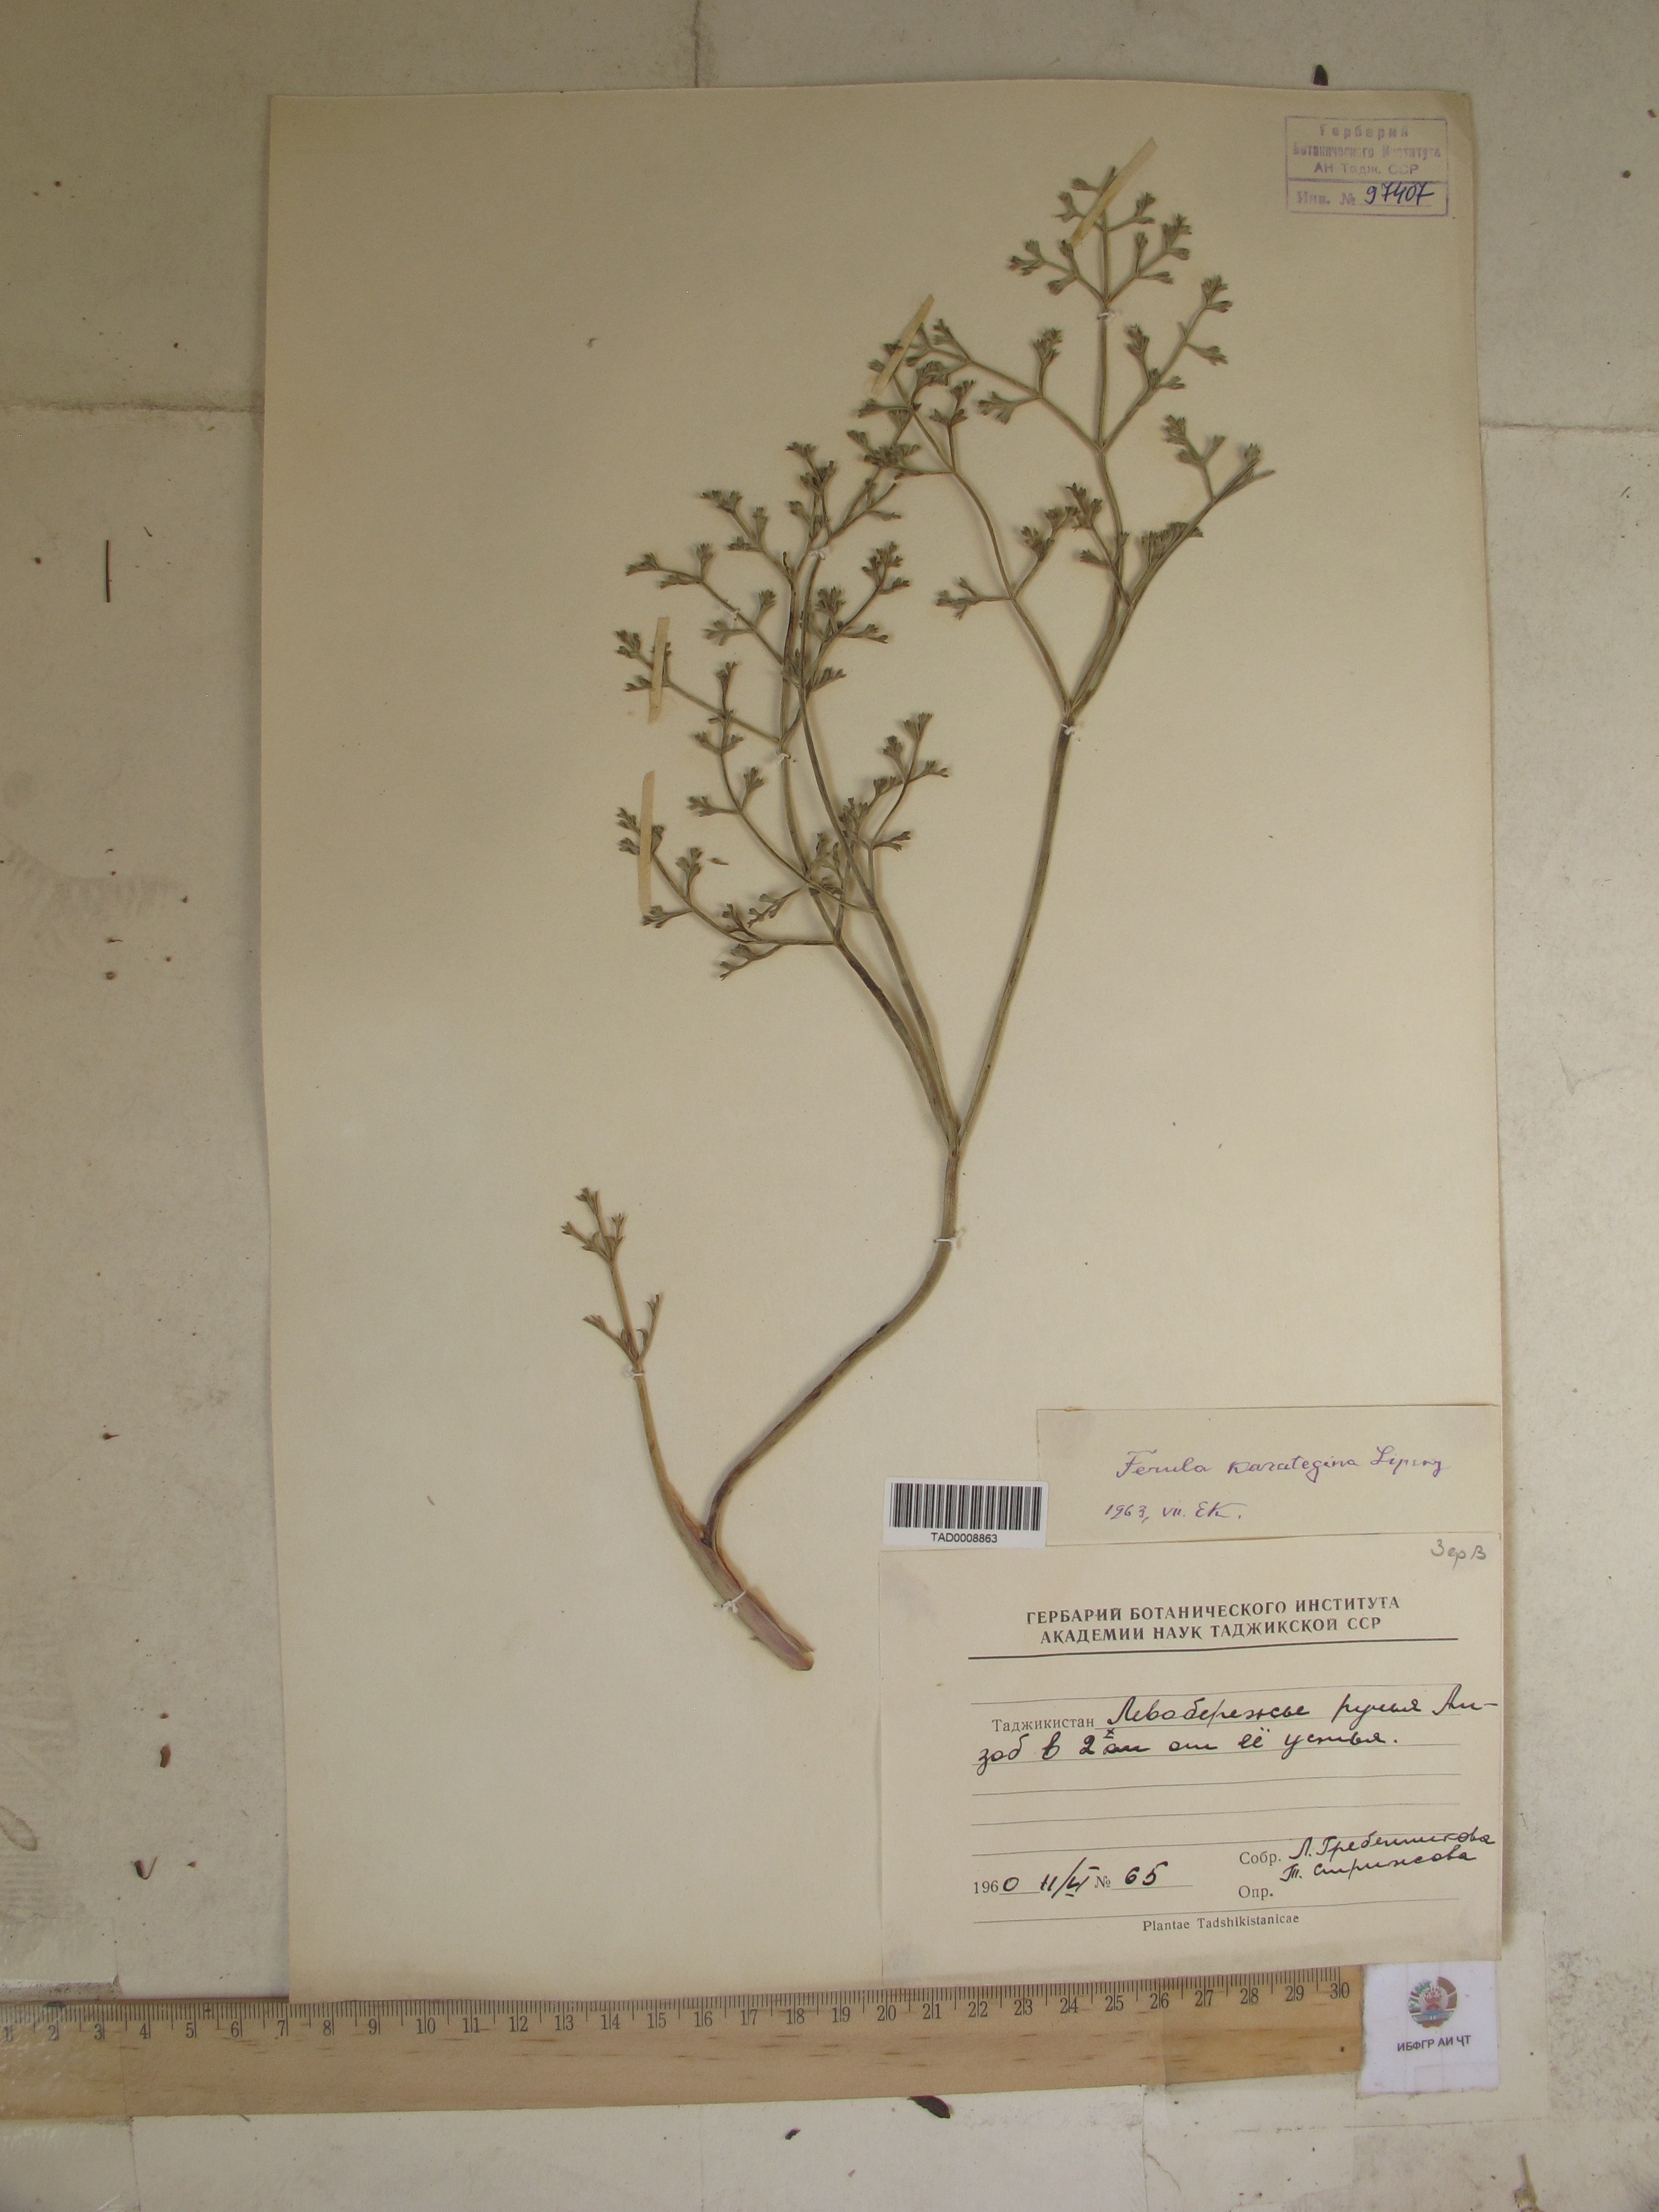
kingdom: Plantae
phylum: Tracheophyta
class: Magnoliopsida
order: Apiales
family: Apiaceae
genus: Ferula
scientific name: Ferula karategina
